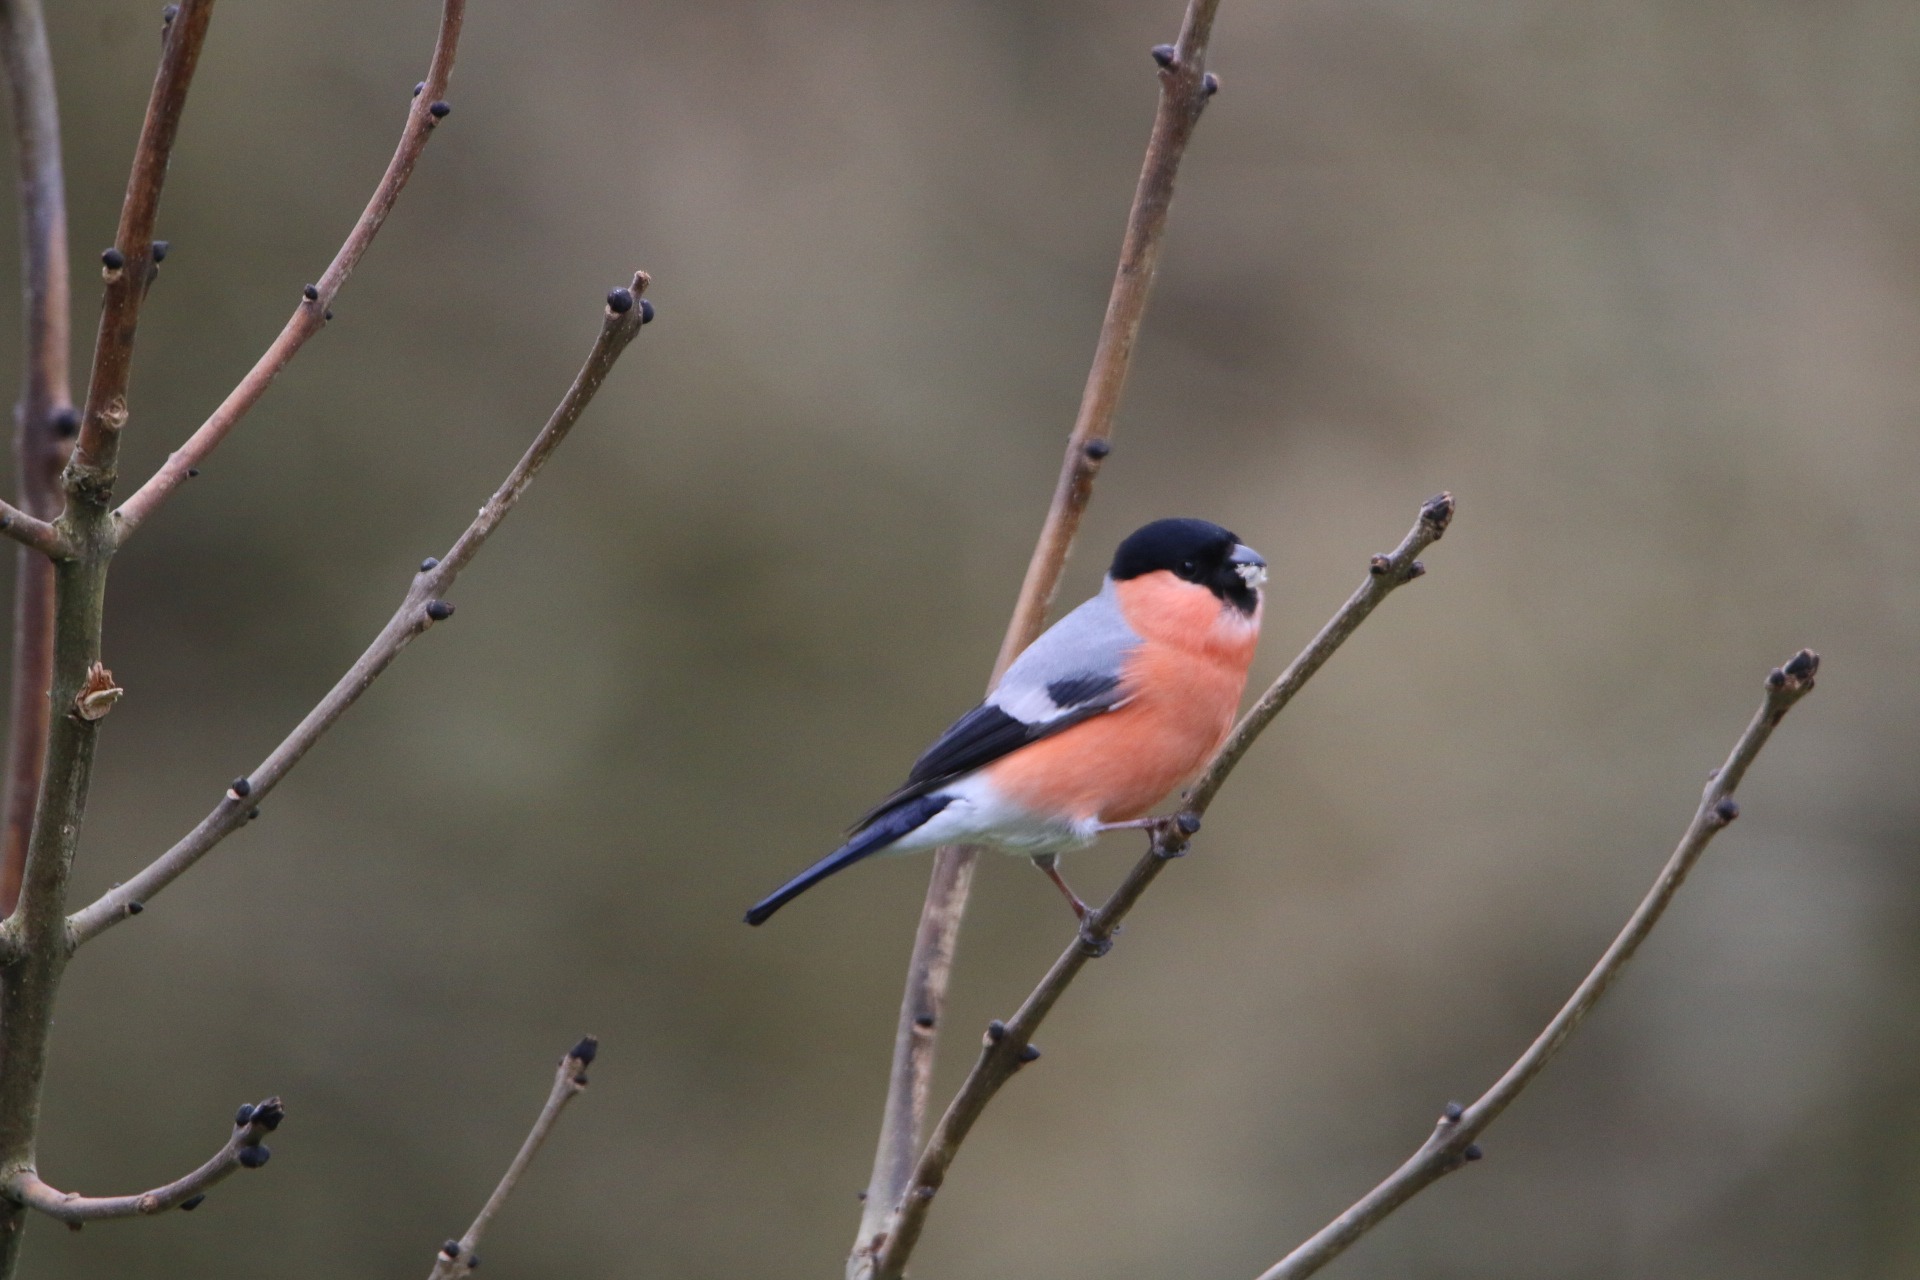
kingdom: Animalia
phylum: Chordata
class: Aves
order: Passeriformes
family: Fringillidae
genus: Pyrrhula
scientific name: Pyrrhula pyrrhula
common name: Dompap
